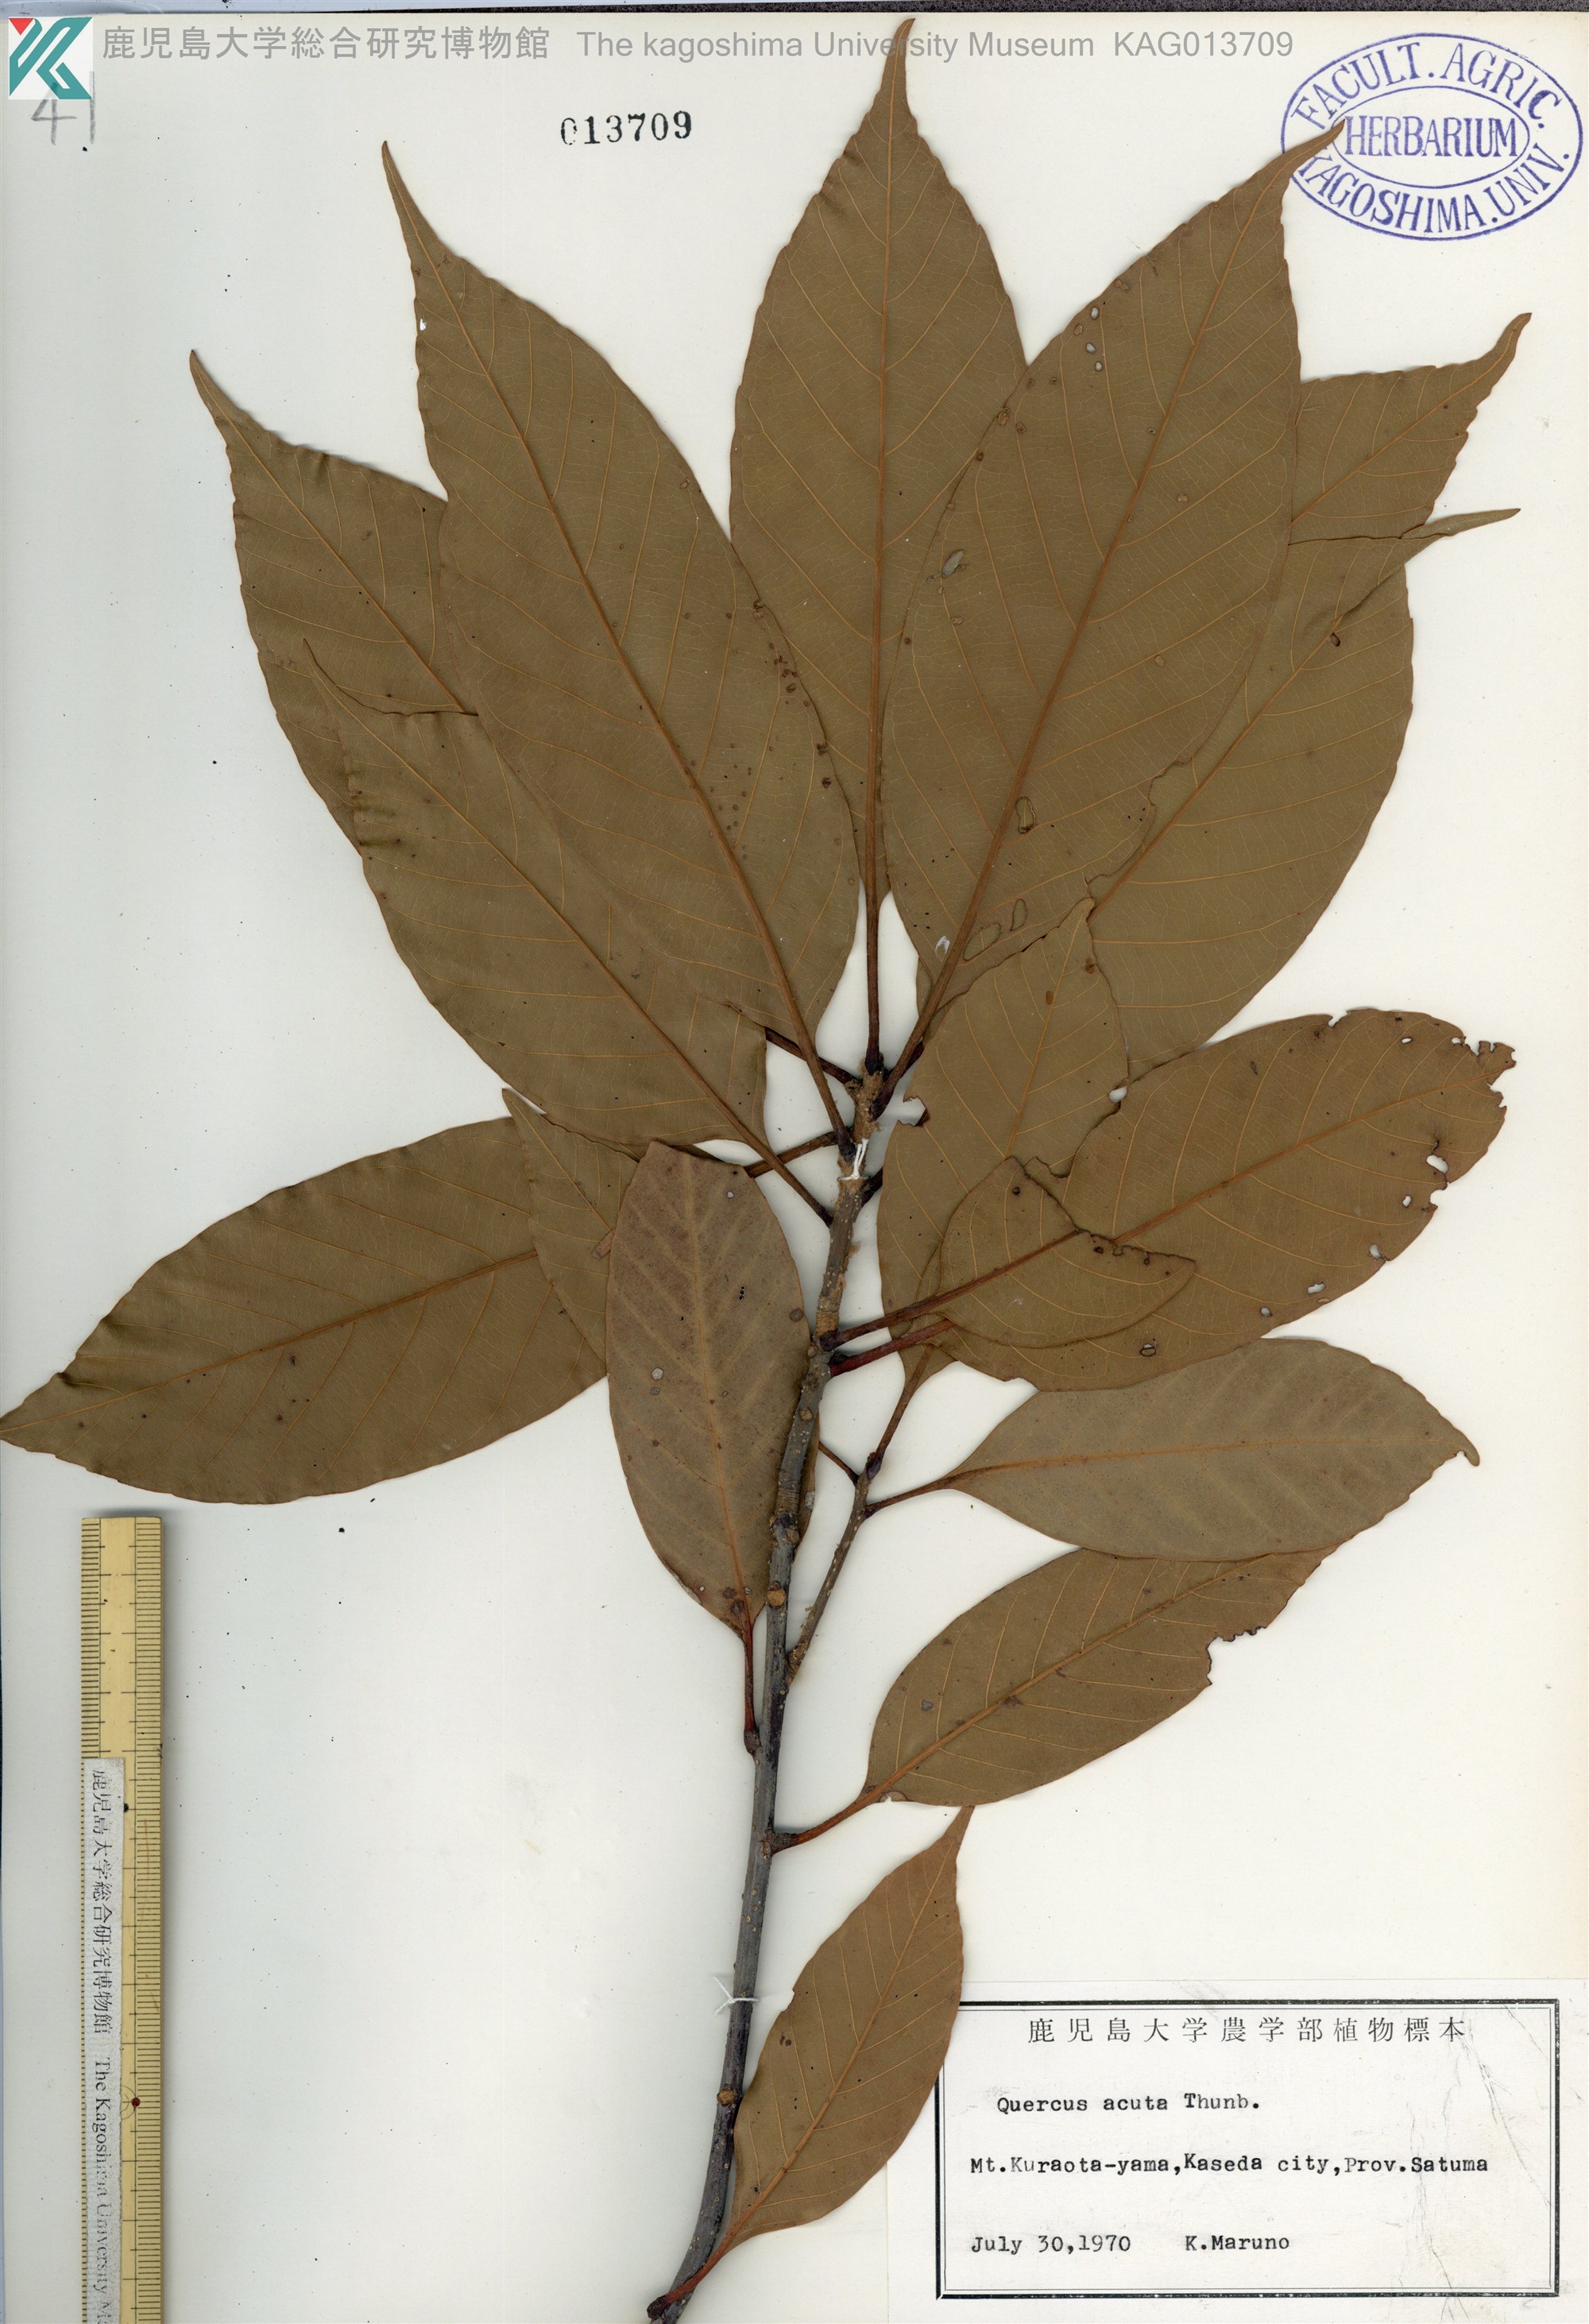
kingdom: Plantae
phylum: Tracheophyta
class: Magnoliopsida
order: Fagales
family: Fagaceae
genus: Quercus
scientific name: Quercus acuta
